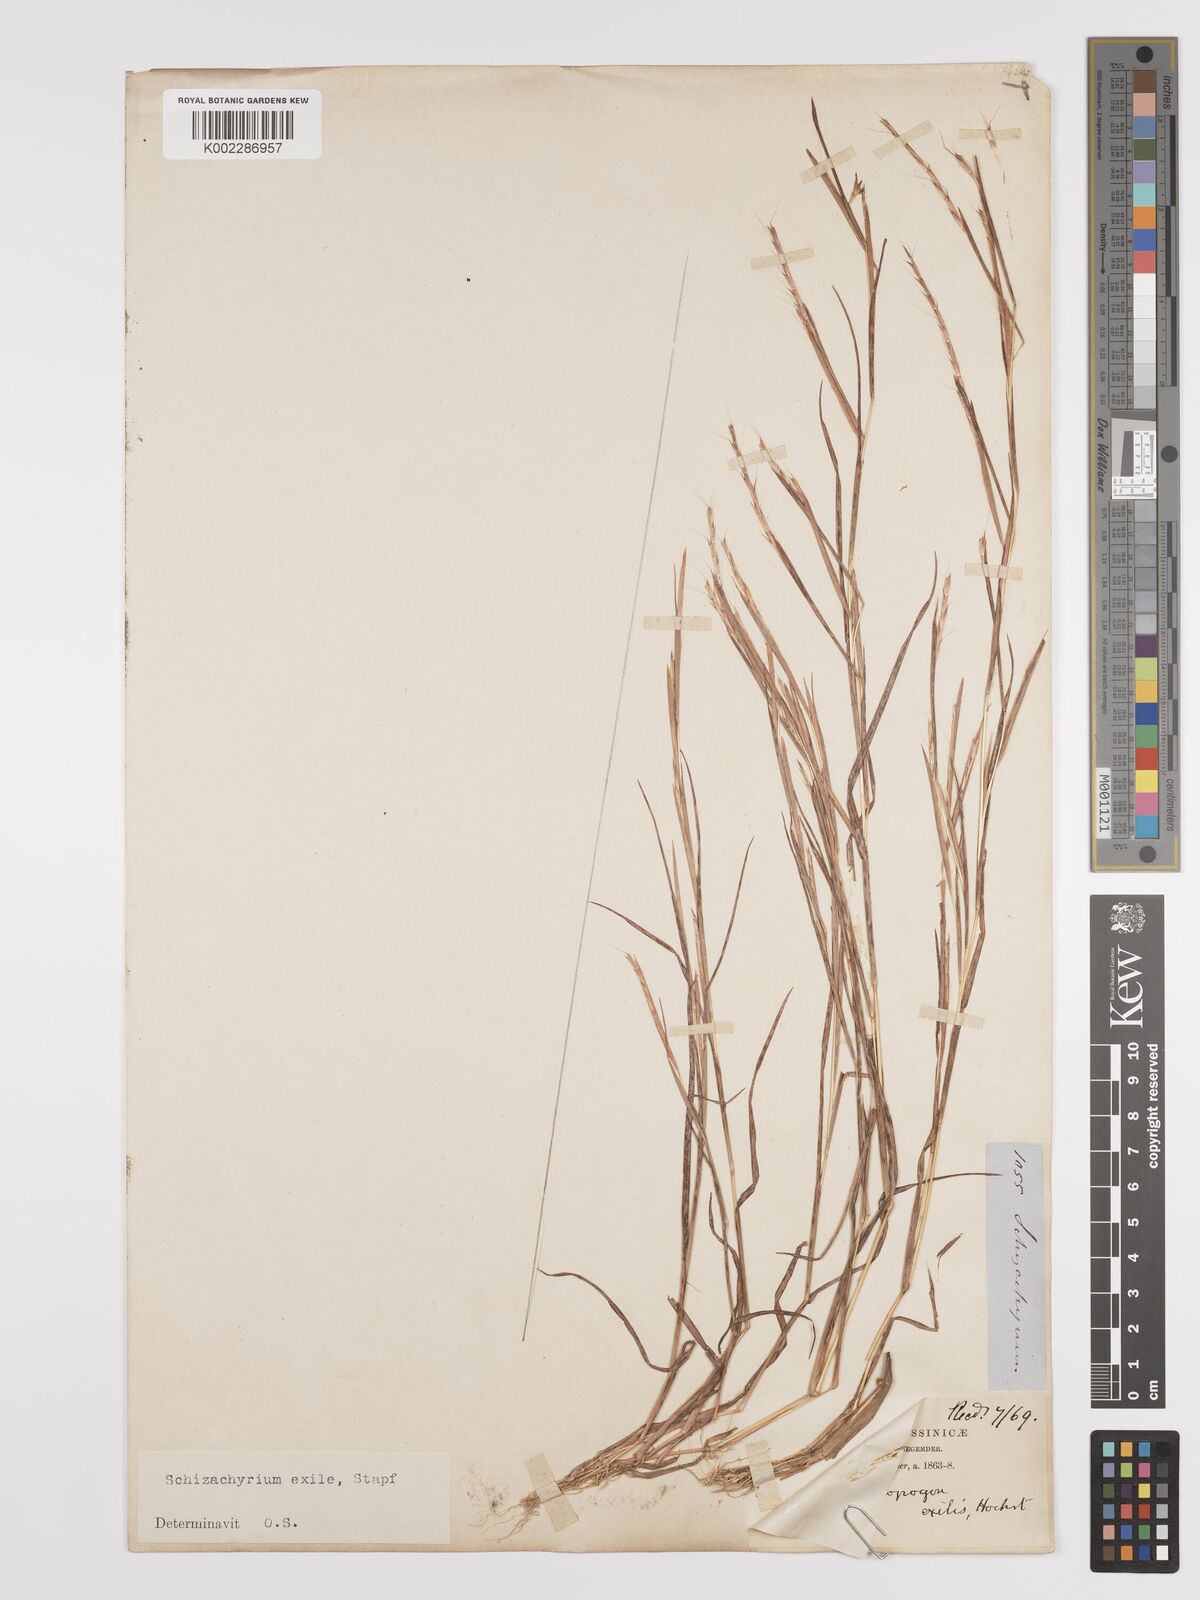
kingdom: Plantae
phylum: Tracheophyta
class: Liliopsida
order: Poales
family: Poaceae
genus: Schizachyrium
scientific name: Schizachyrium exile
